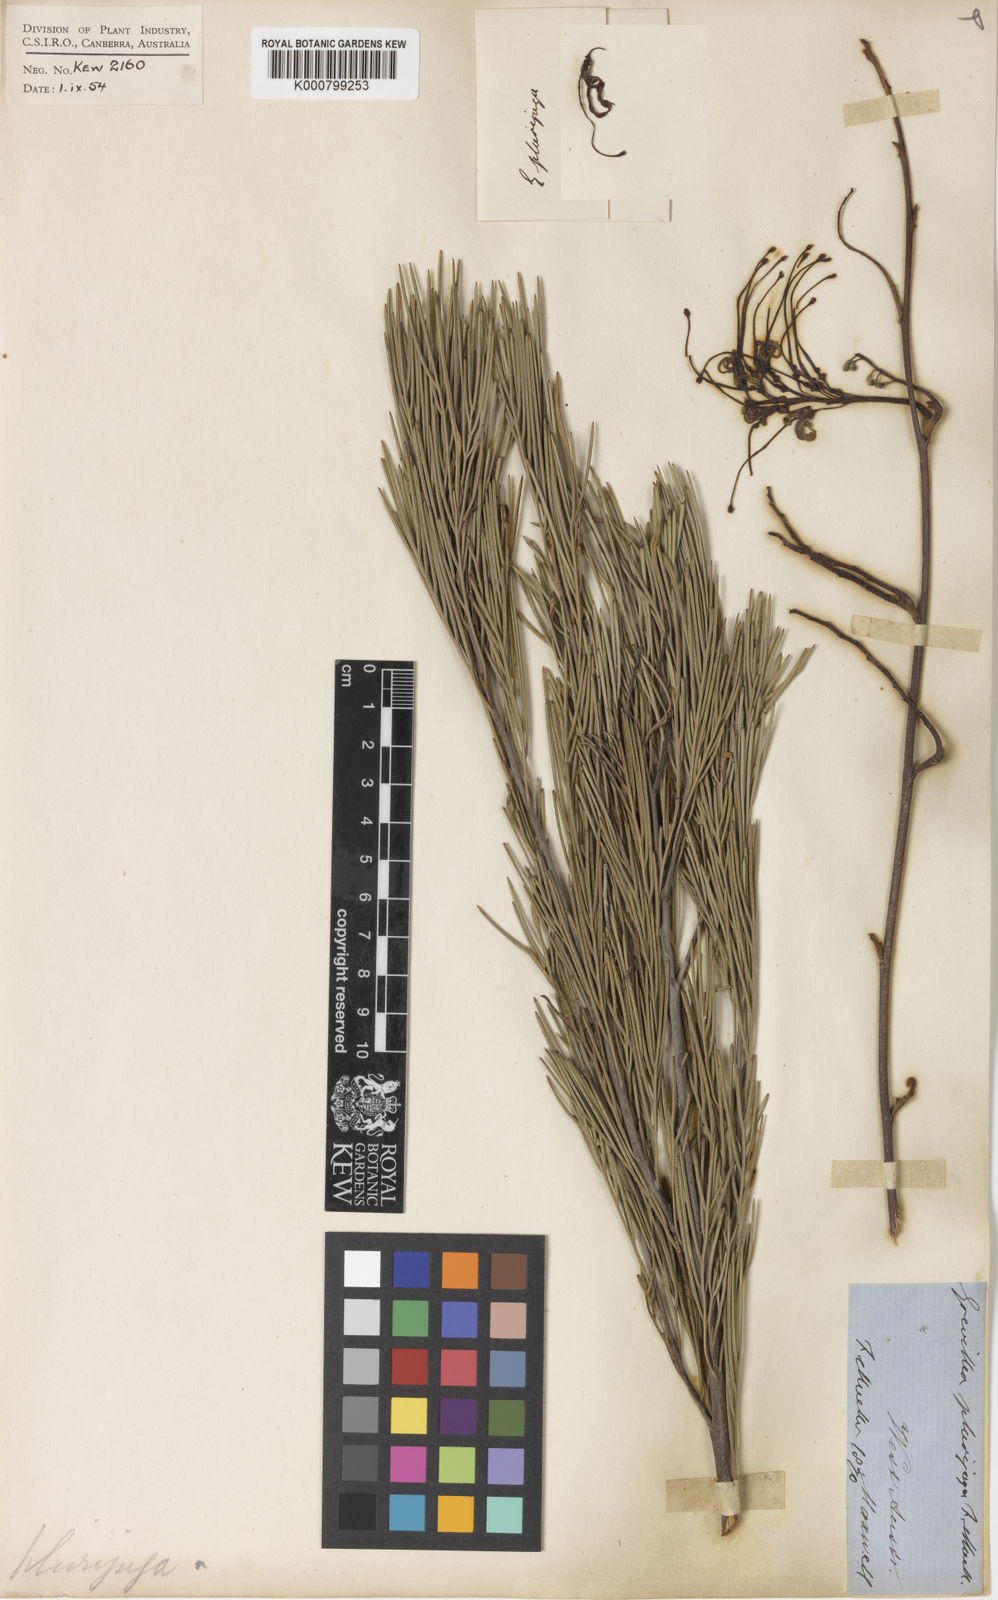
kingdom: Plantae
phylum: Tracheophyta
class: Magnoliopsida
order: Proteales
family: Proteaceae
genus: Grevillea
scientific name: Grevillea plurijuga
